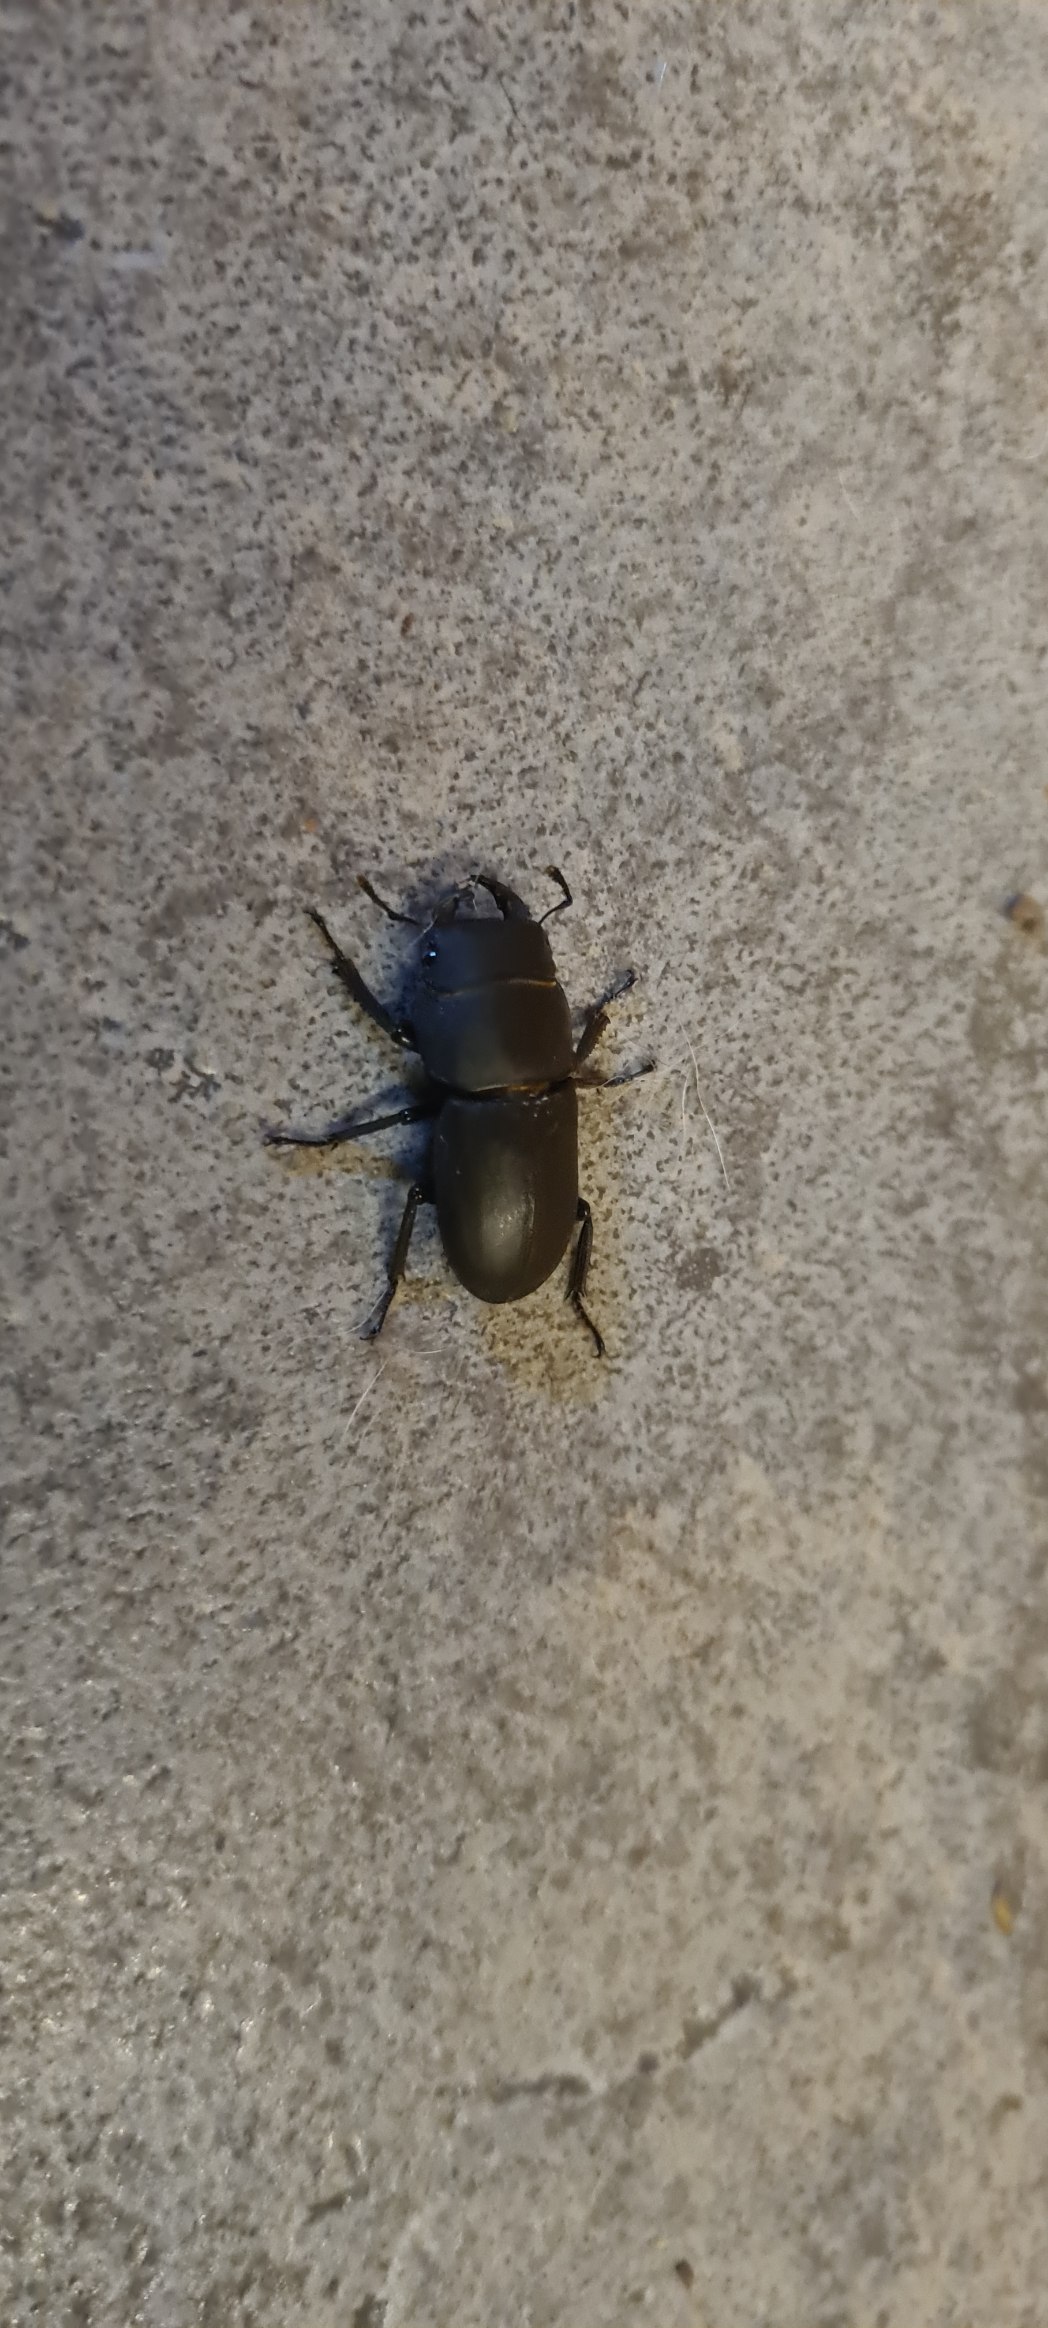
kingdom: Animalia
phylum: Arthropoda
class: Insecta
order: Coleoptera
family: Lucanidae
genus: Dorcus
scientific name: Dorcus parallelipipedus
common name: Bøghjort
